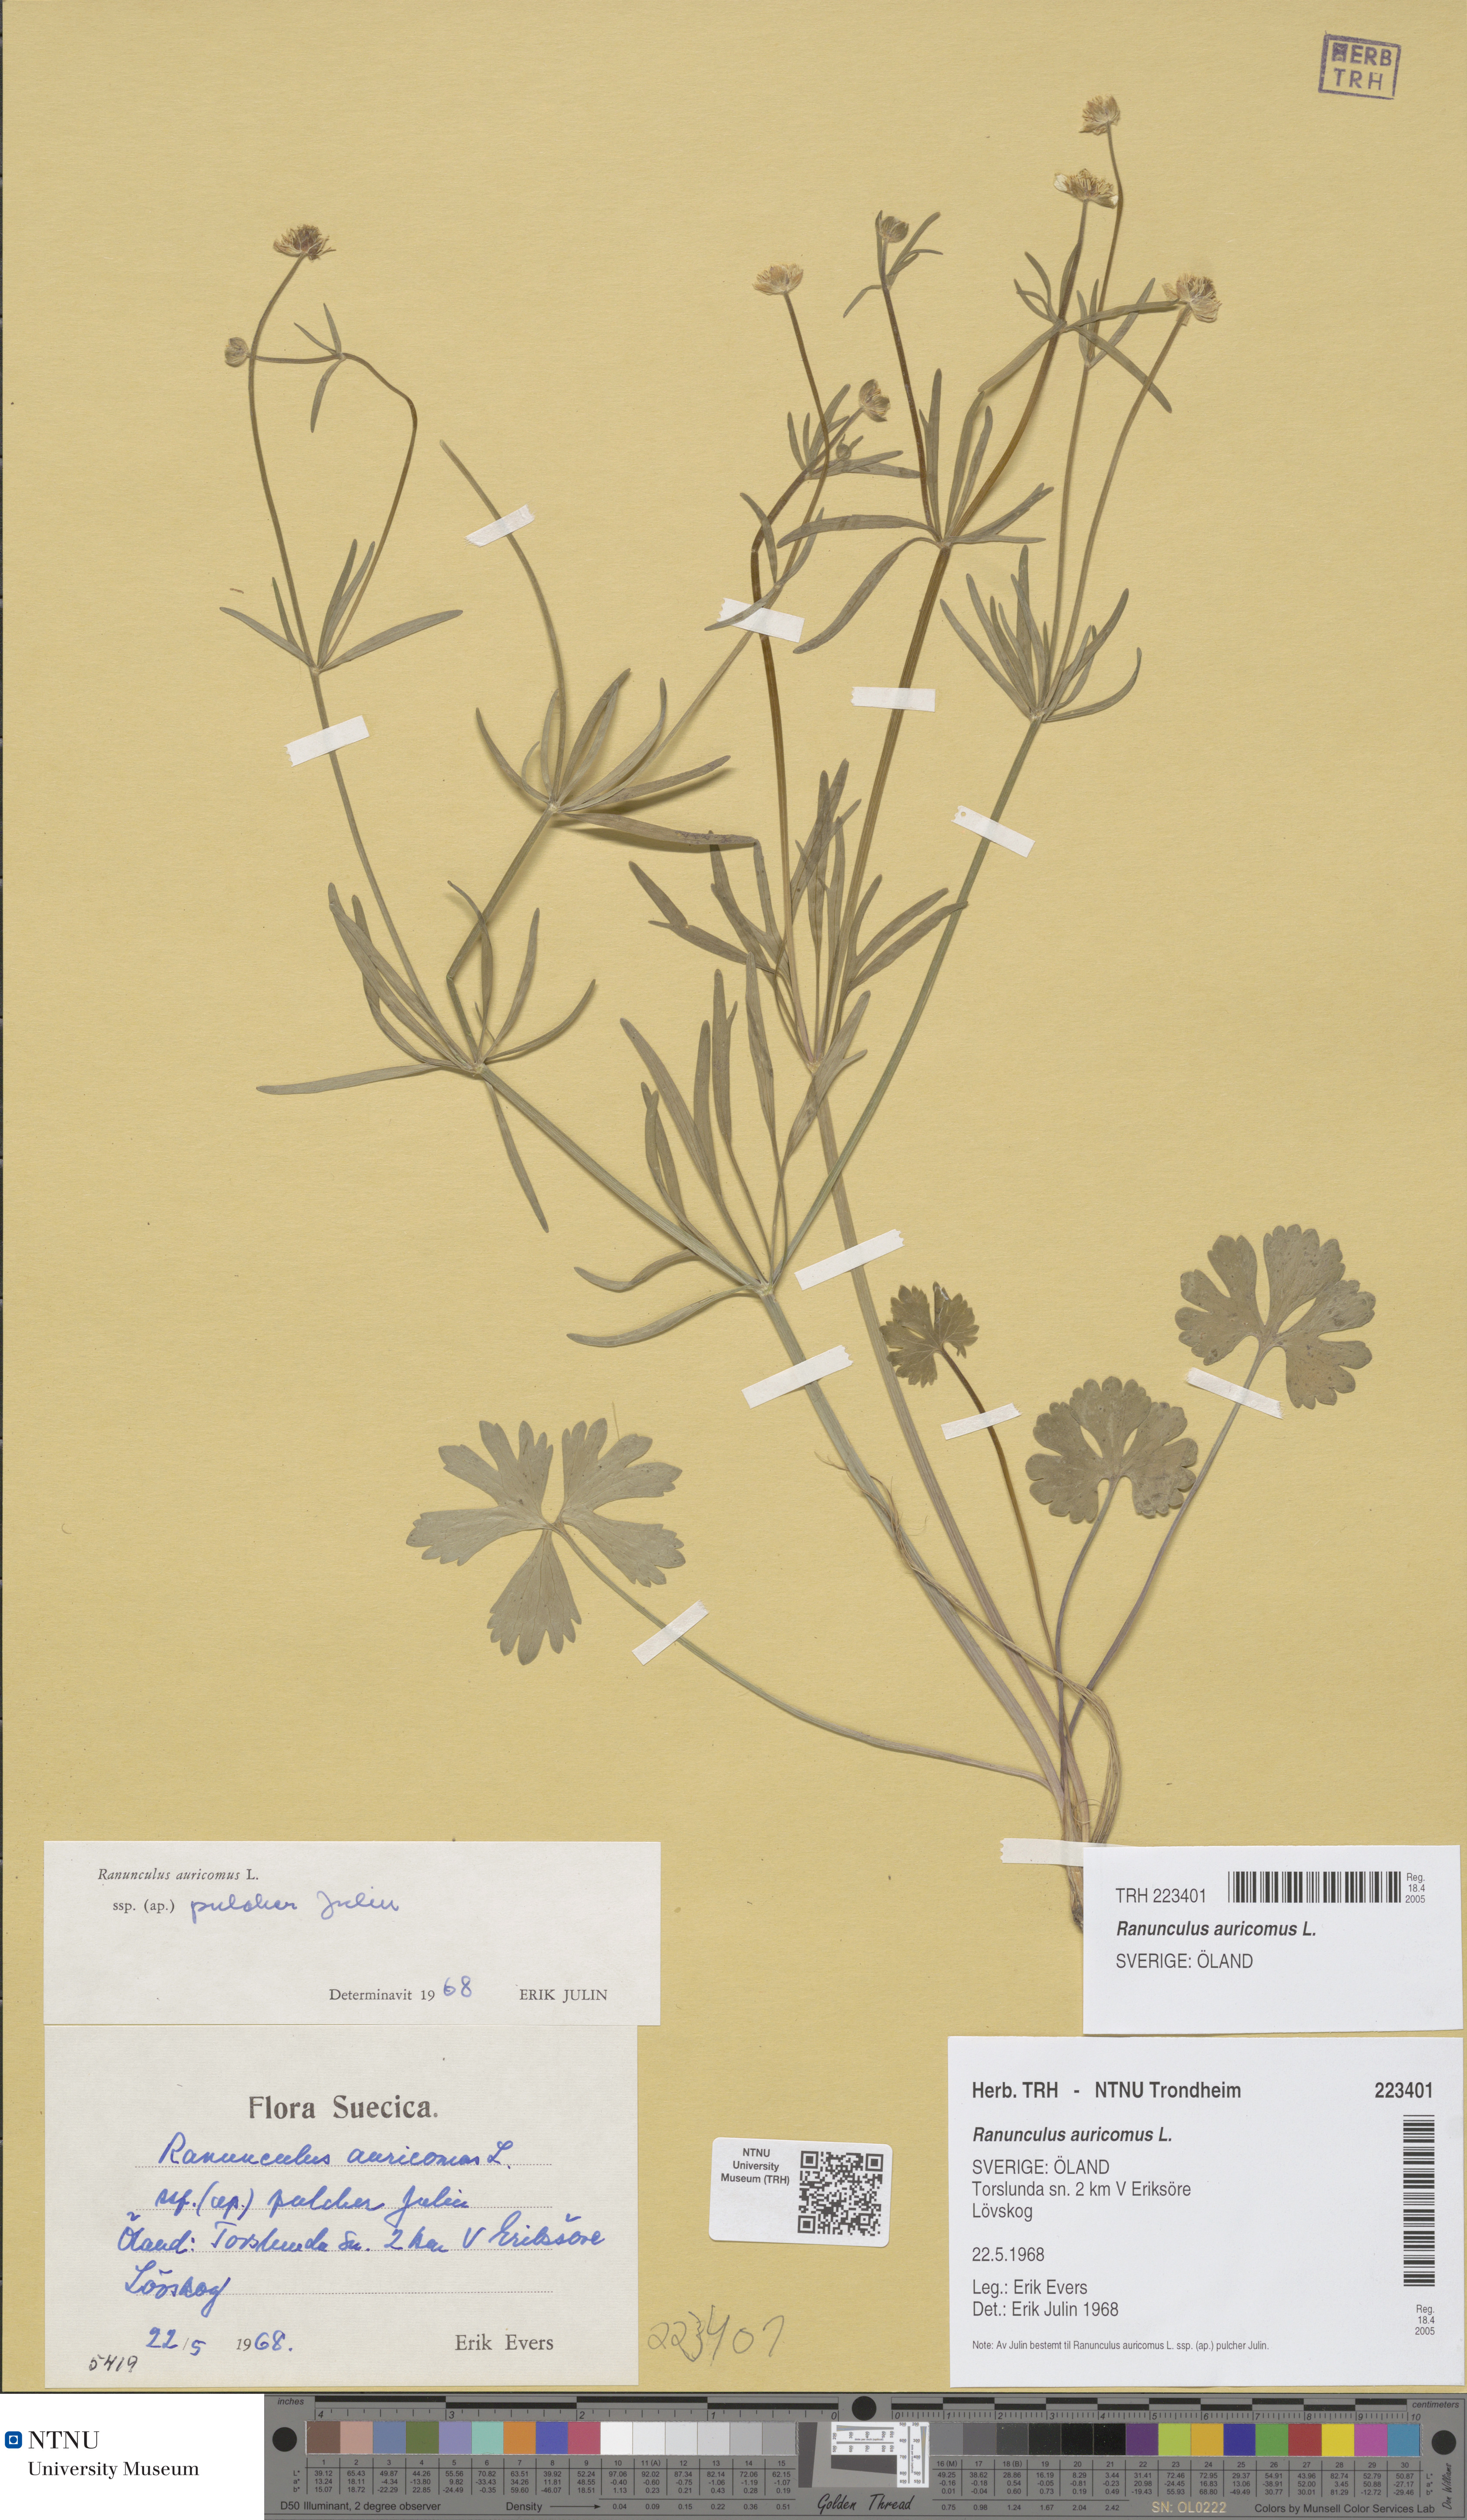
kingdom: Plantae
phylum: Tracheophyta
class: Magnoliopsida
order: Ranunculales
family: Ranunculaceae
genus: Ranunculus
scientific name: Ranunculus auricomus
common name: Goldilocks buttercup
